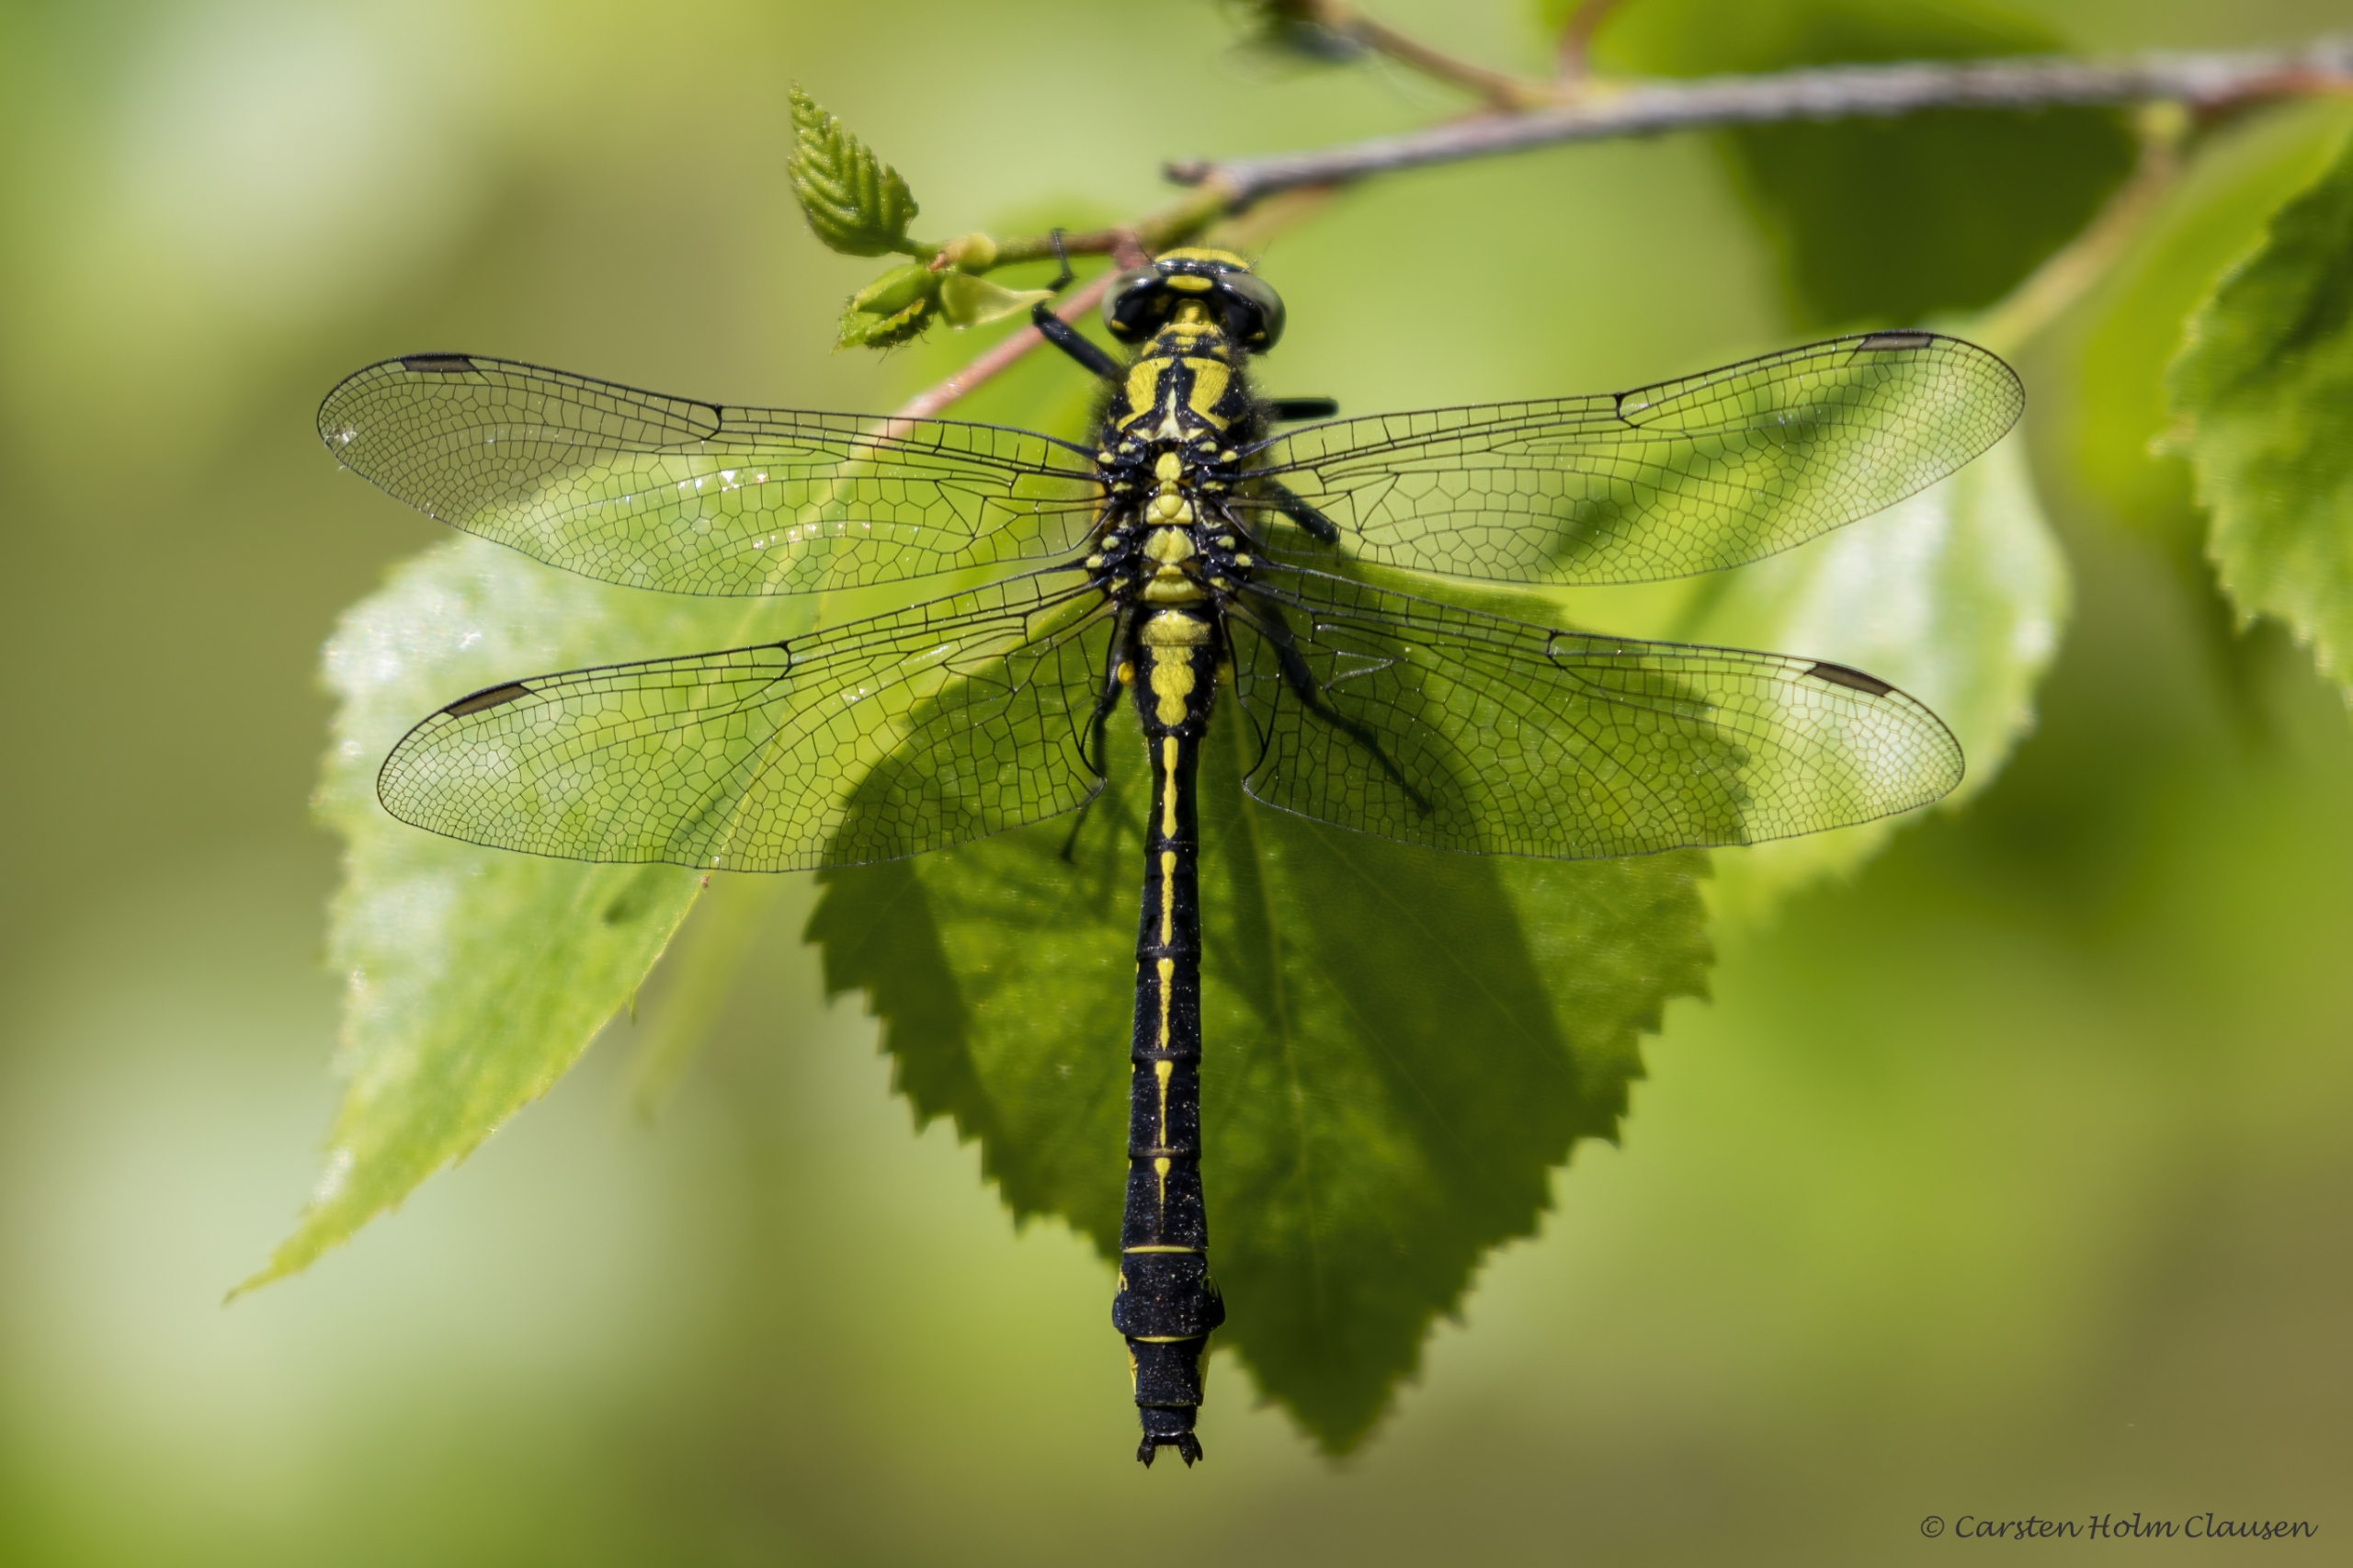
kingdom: Animalia
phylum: Arthropoda
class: Insecta
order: Odonata
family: Gomphidae
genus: Gomphus
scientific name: Gomphus vulgatissimus
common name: Almindelig flodguldsmed
